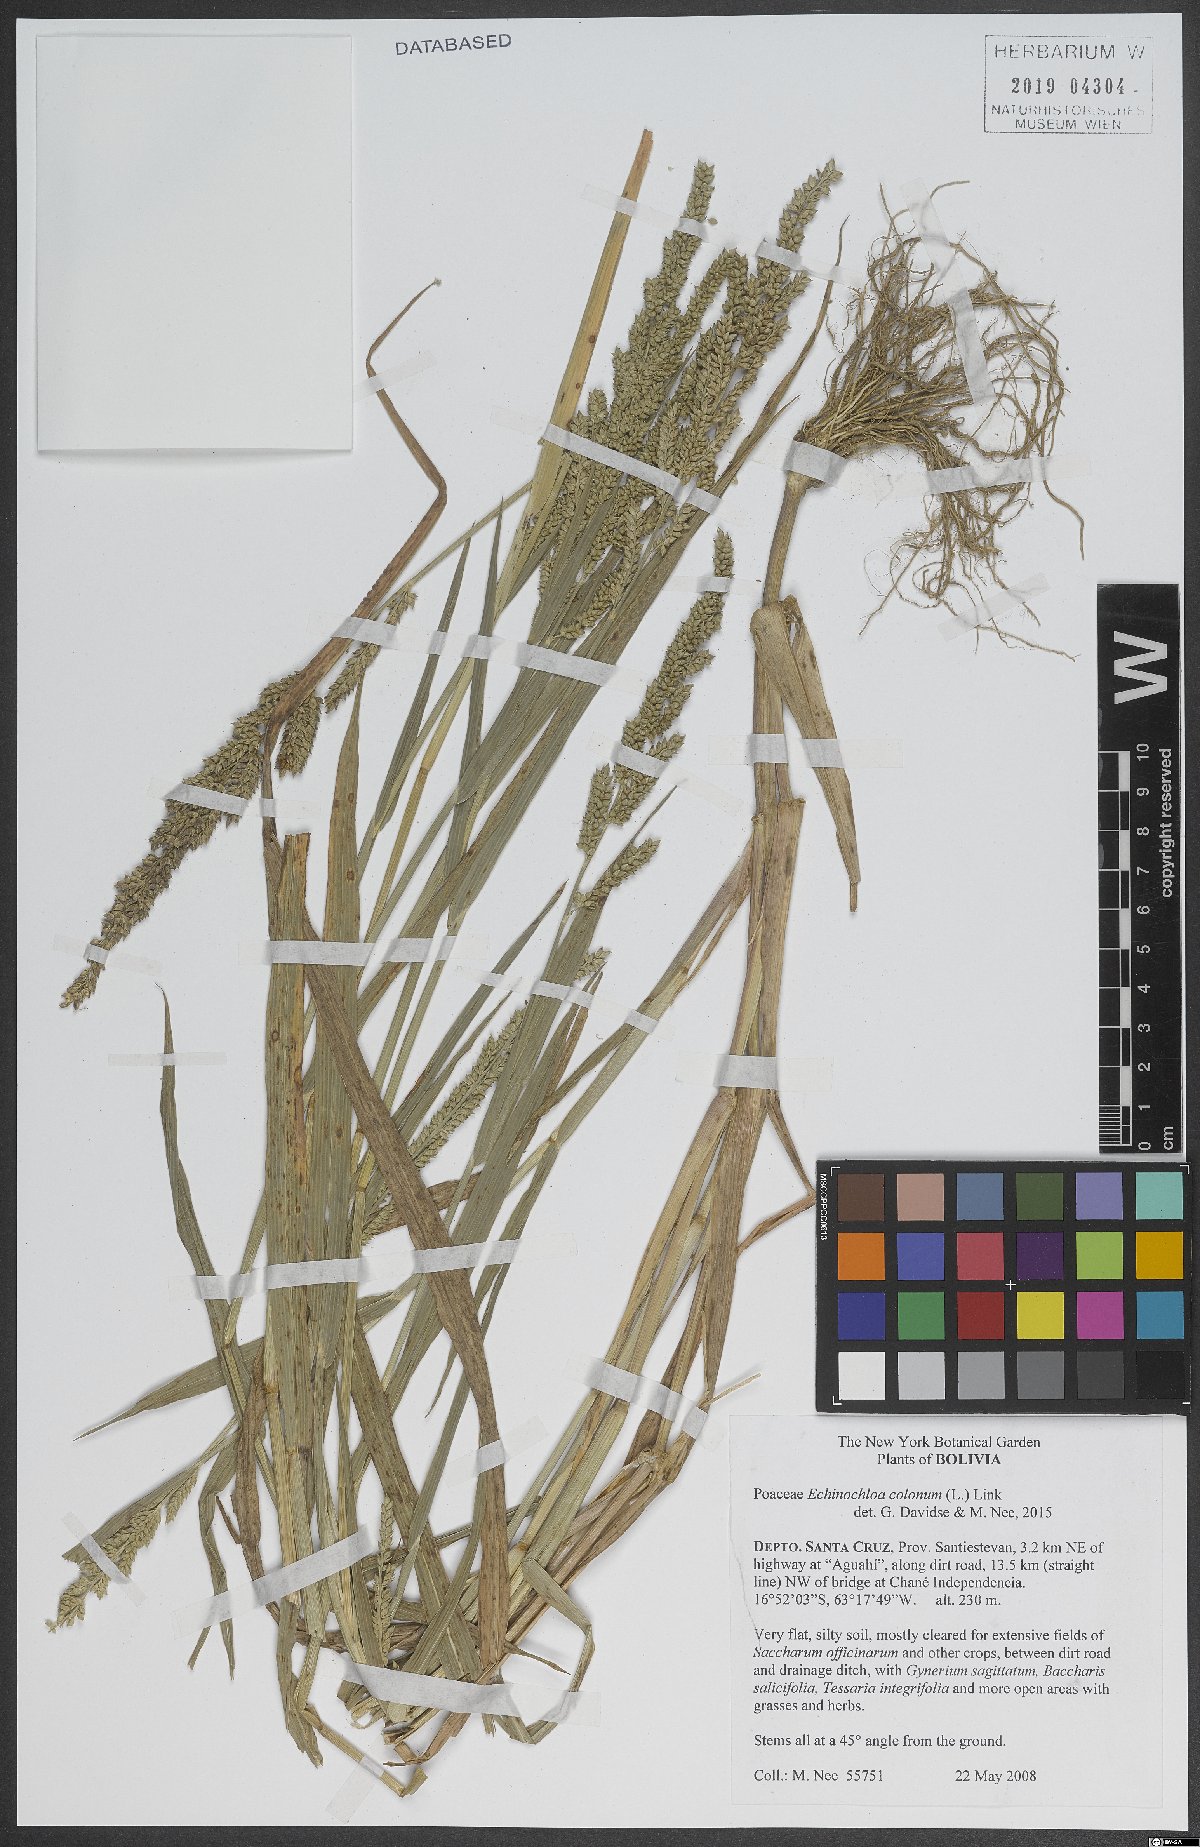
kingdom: Plantae
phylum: Tracheophyta
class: Liliopsida
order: Poales
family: Poaceae
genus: Echinochloa
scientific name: Echinochloa colonum
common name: Jungle rice
